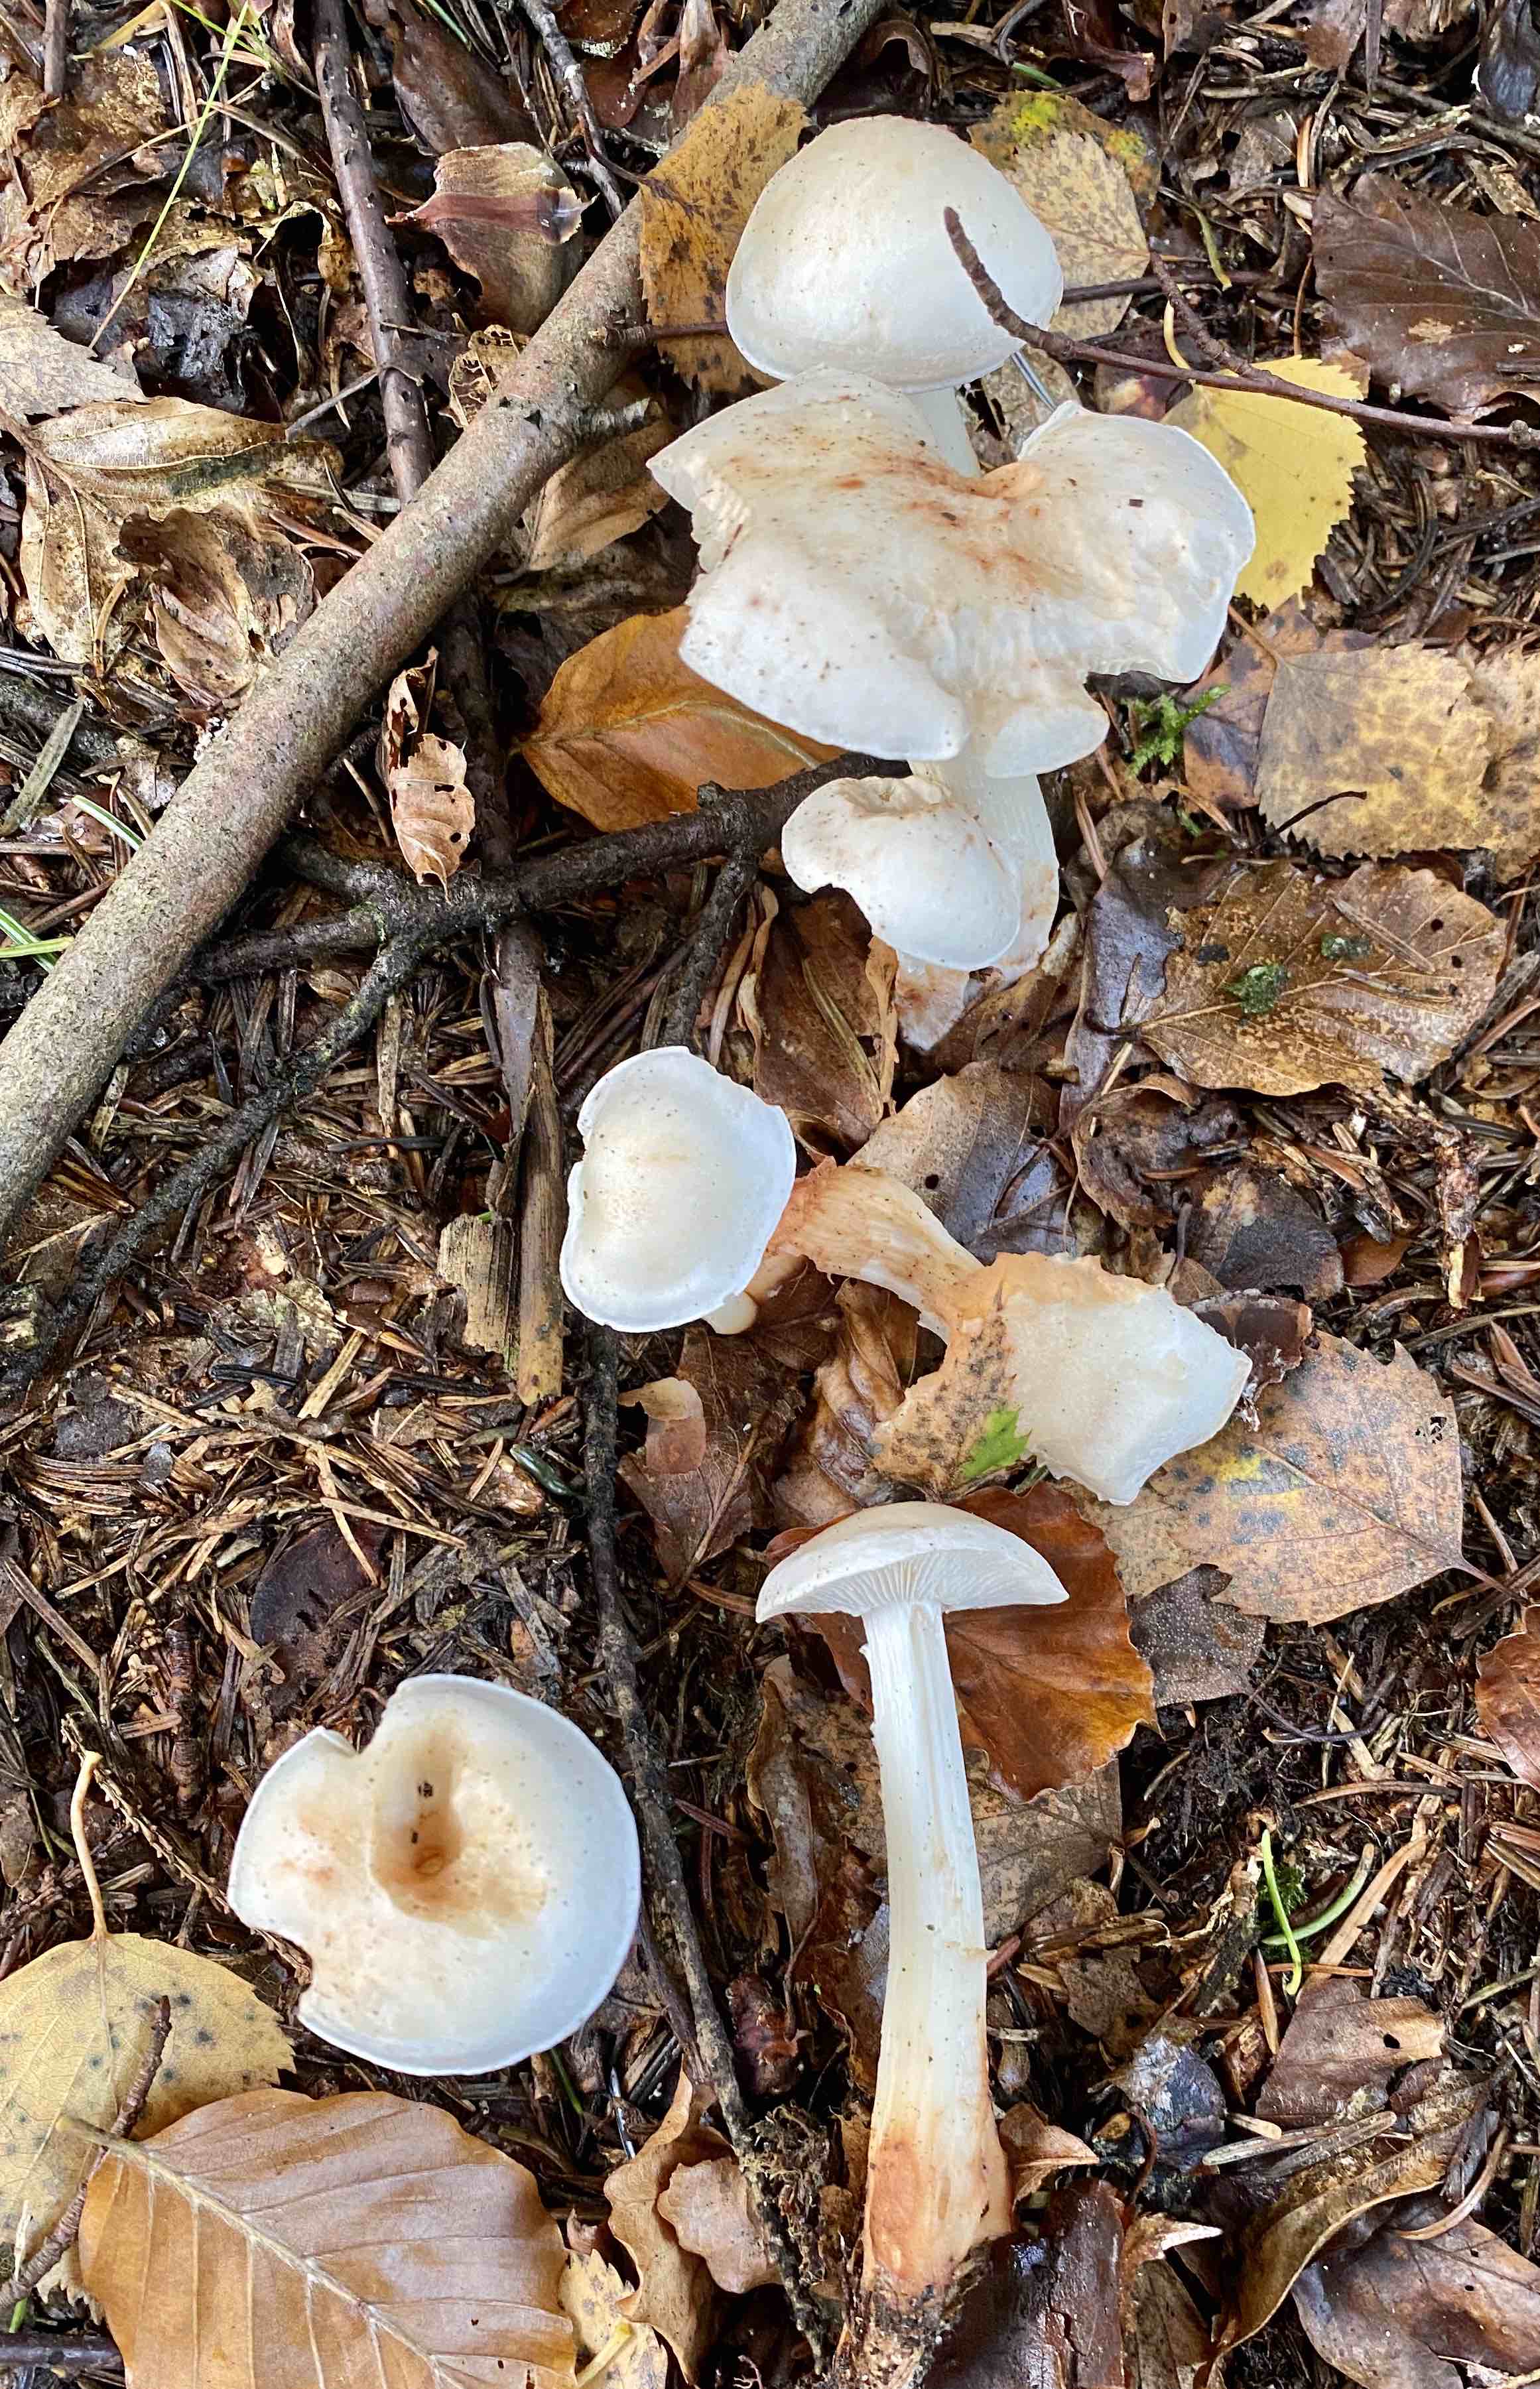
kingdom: Fungi
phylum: Basidiomycota
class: Agaricomycetes
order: Agaricales
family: Omphalotaceae
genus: Rhodocollybia
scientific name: Rhodocollybia maculata
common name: plettet fladhat
